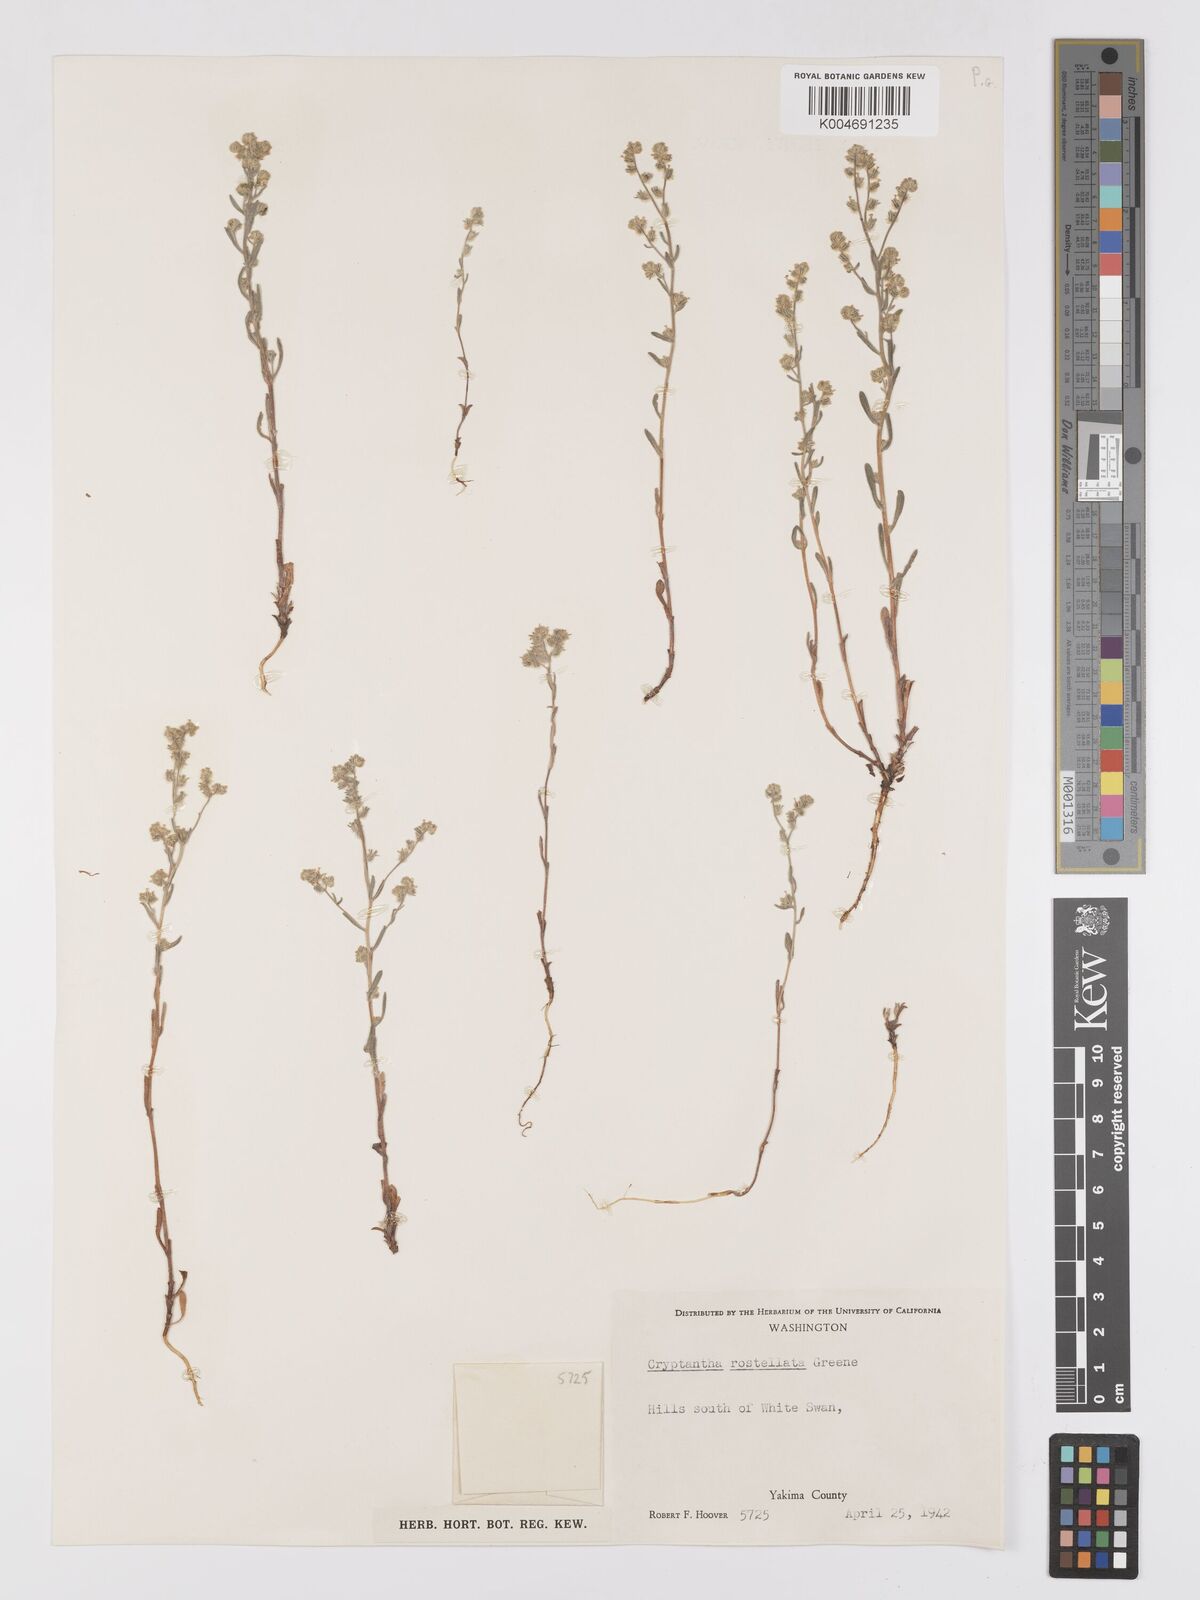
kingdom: Plantae
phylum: Tracheophyta
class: Magnoliopsida
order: Boraginales
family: Boraginaceae
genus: Cryptantha
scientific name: Cryptantha rostellata
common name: Beaked cryptantha
